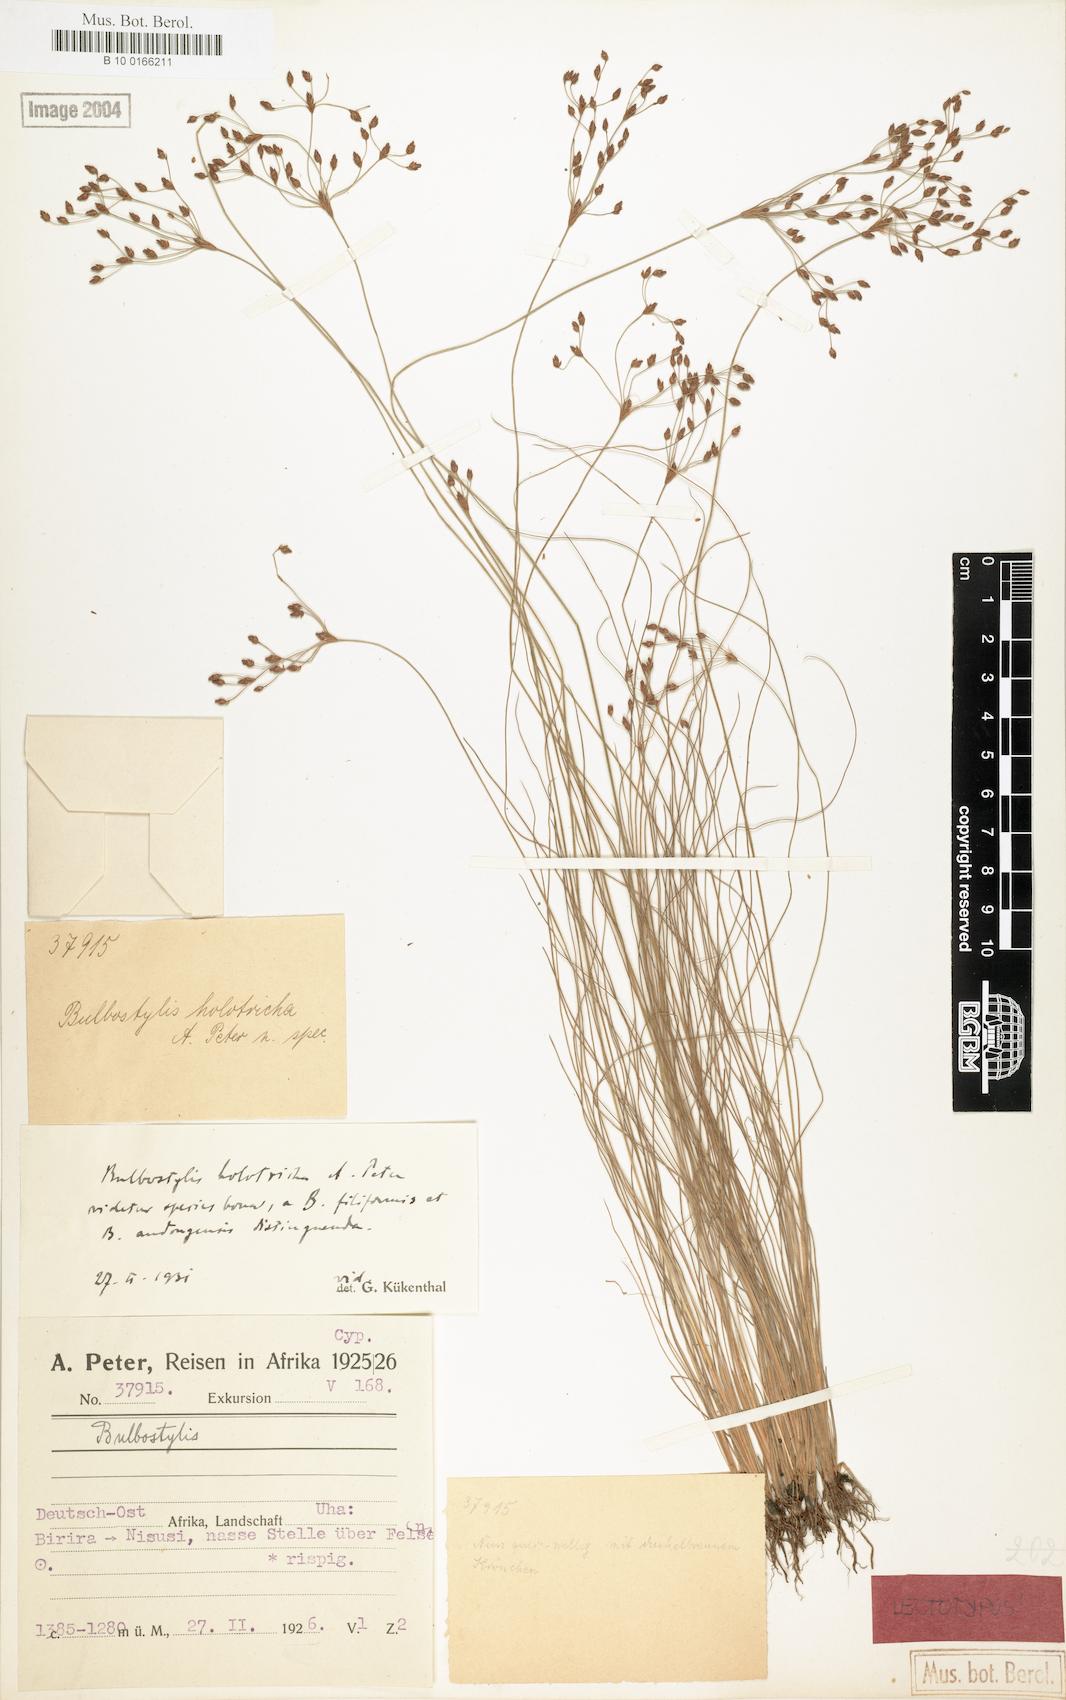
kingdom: Plantae
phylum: Tracheophyta
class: Liliopsida
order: Poales
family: Cyperaceae
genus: Bulbostylis
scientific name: Bulbostylis congolensis
